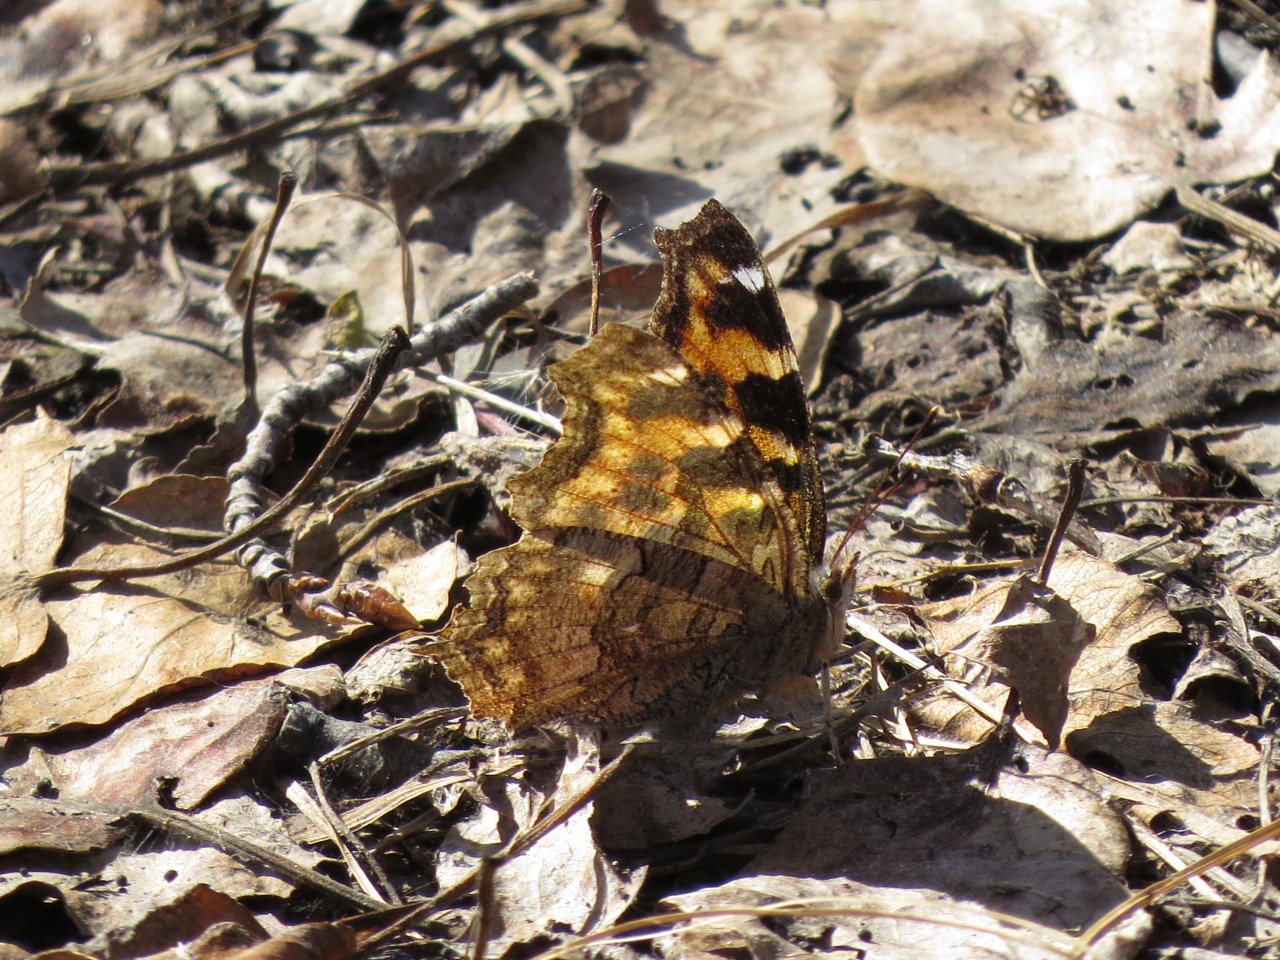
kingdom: Animalia
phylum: Arthropoda
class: Insecta
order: Lepidoptera
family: Nymphalidae
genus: Polygonia
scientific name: Polygonia vaualbum
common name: Compton Tortoiseshell
